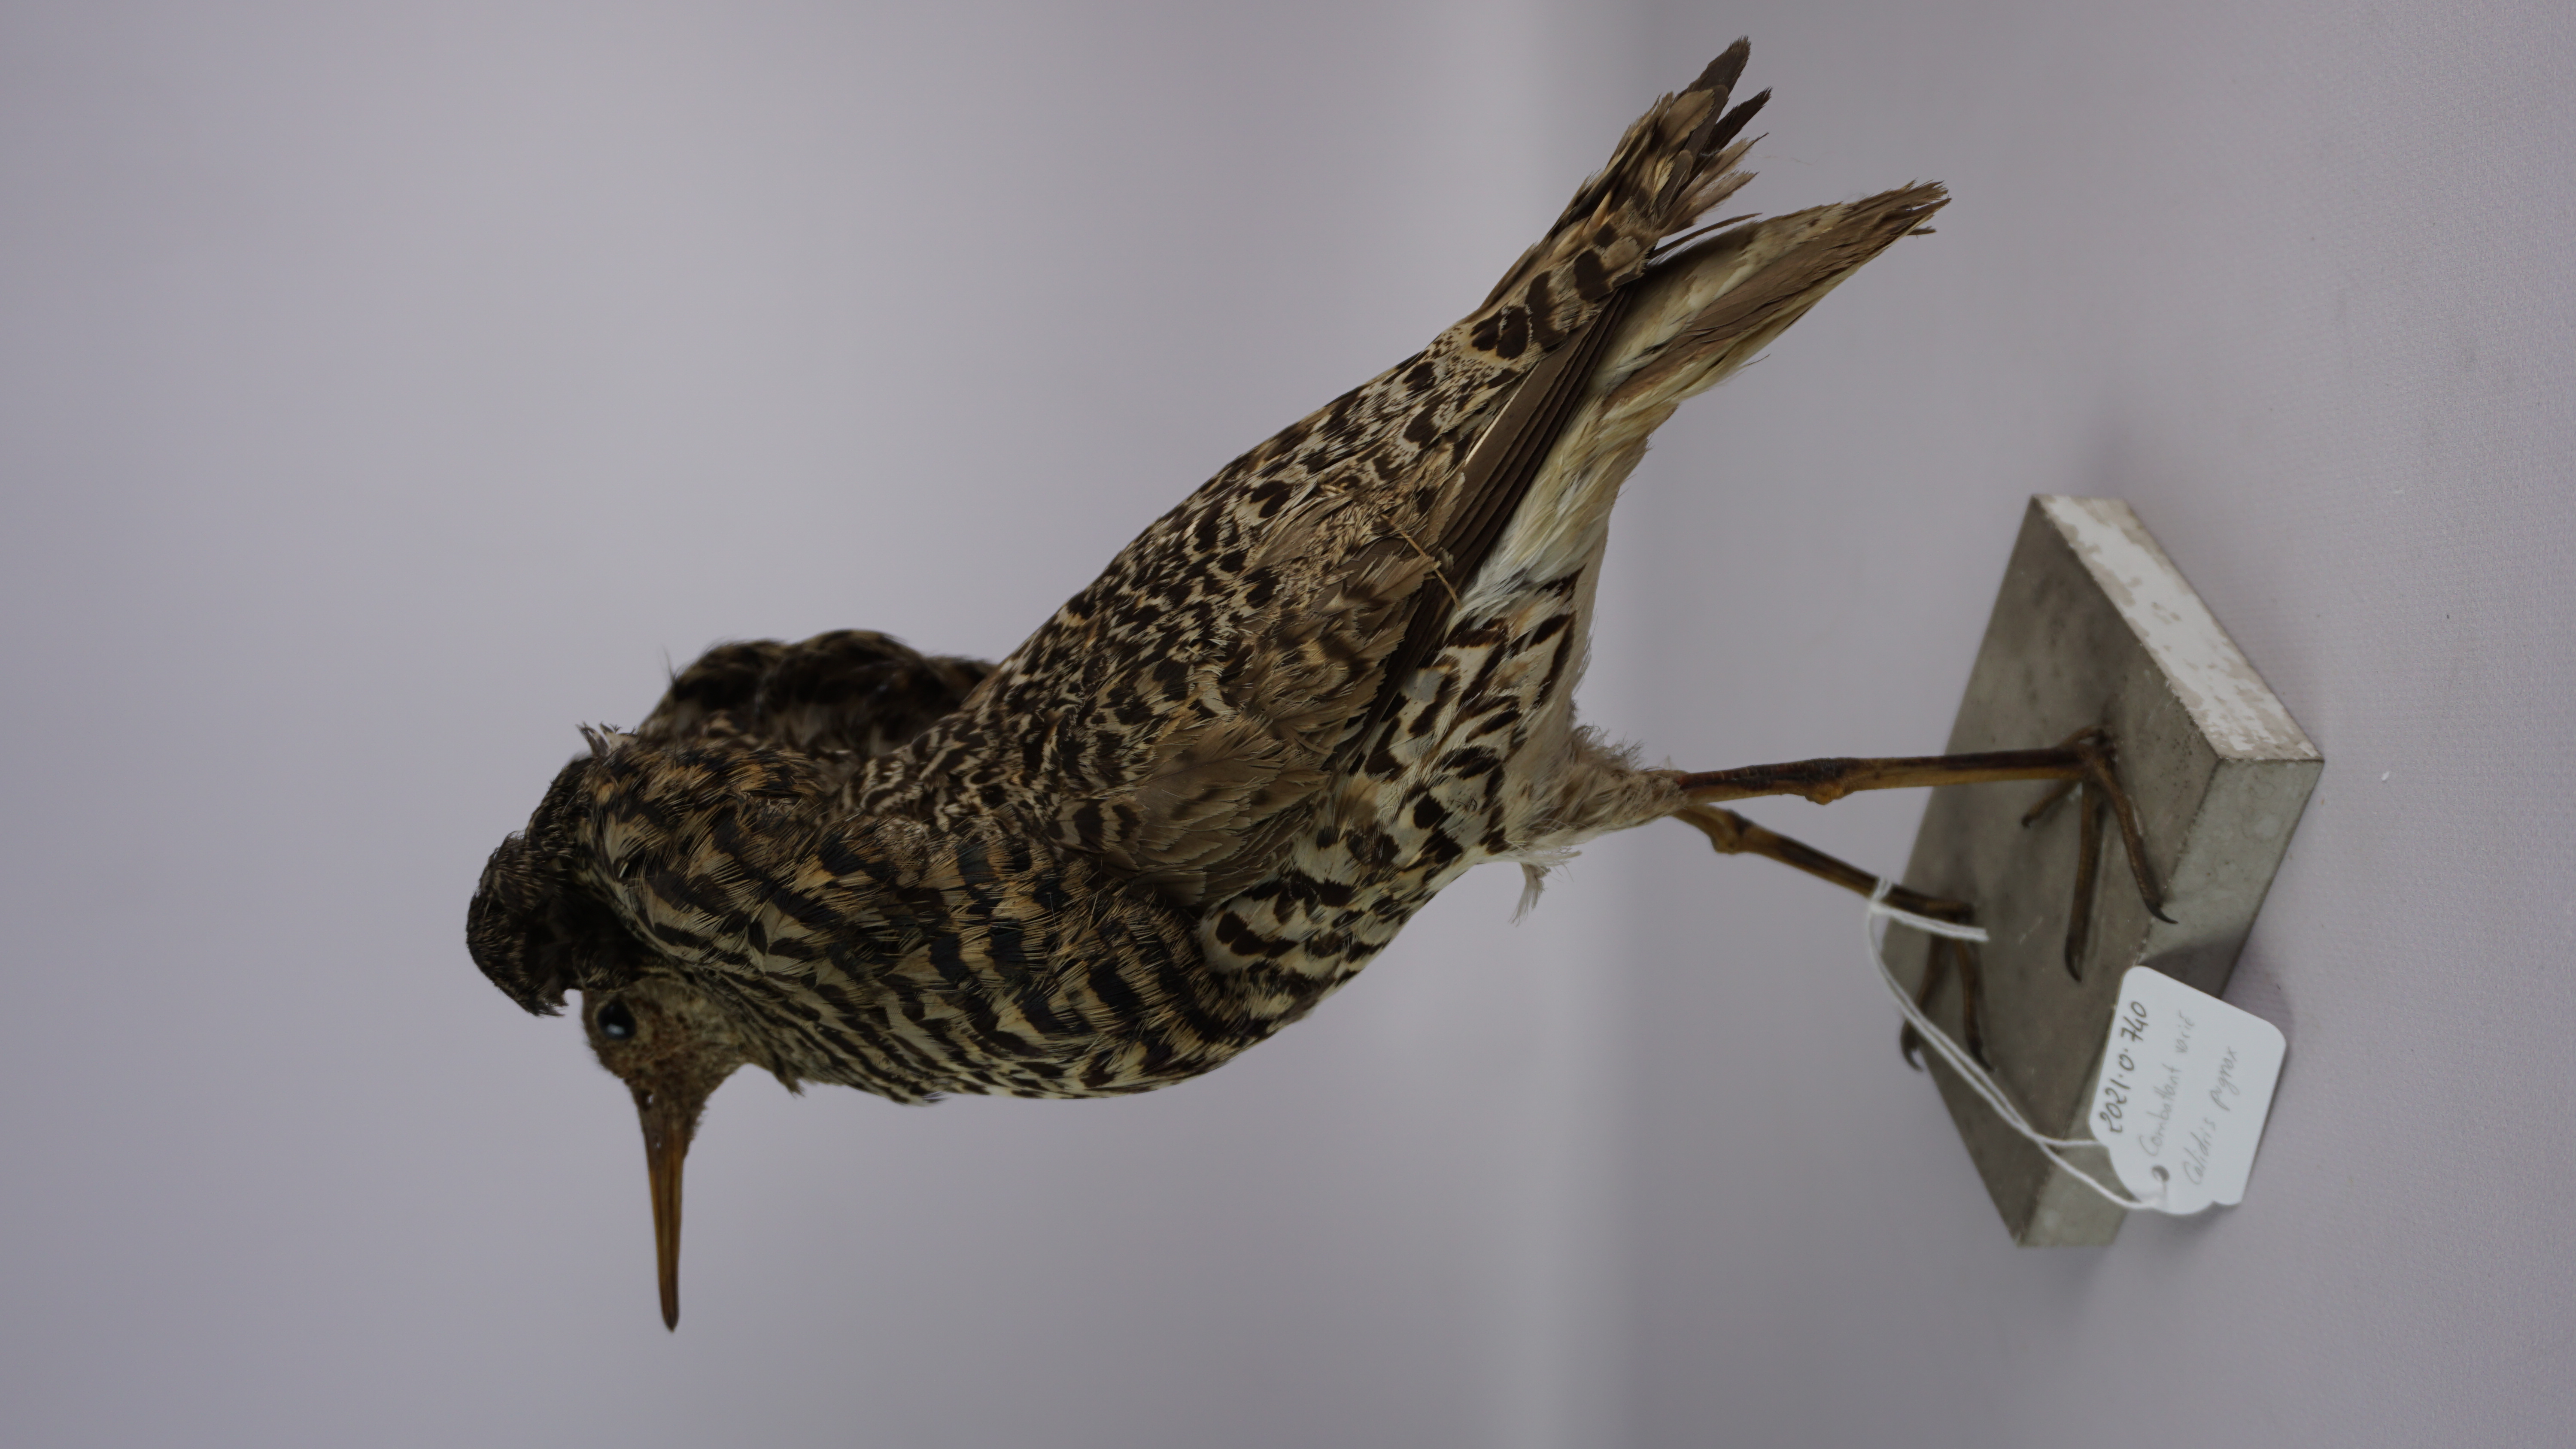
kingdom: Animalia
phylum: Chordata
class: Aves
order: Charadriiformes
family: Scolopacidae
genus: Calidris
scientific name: Calidris pugnax
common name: Ruff
